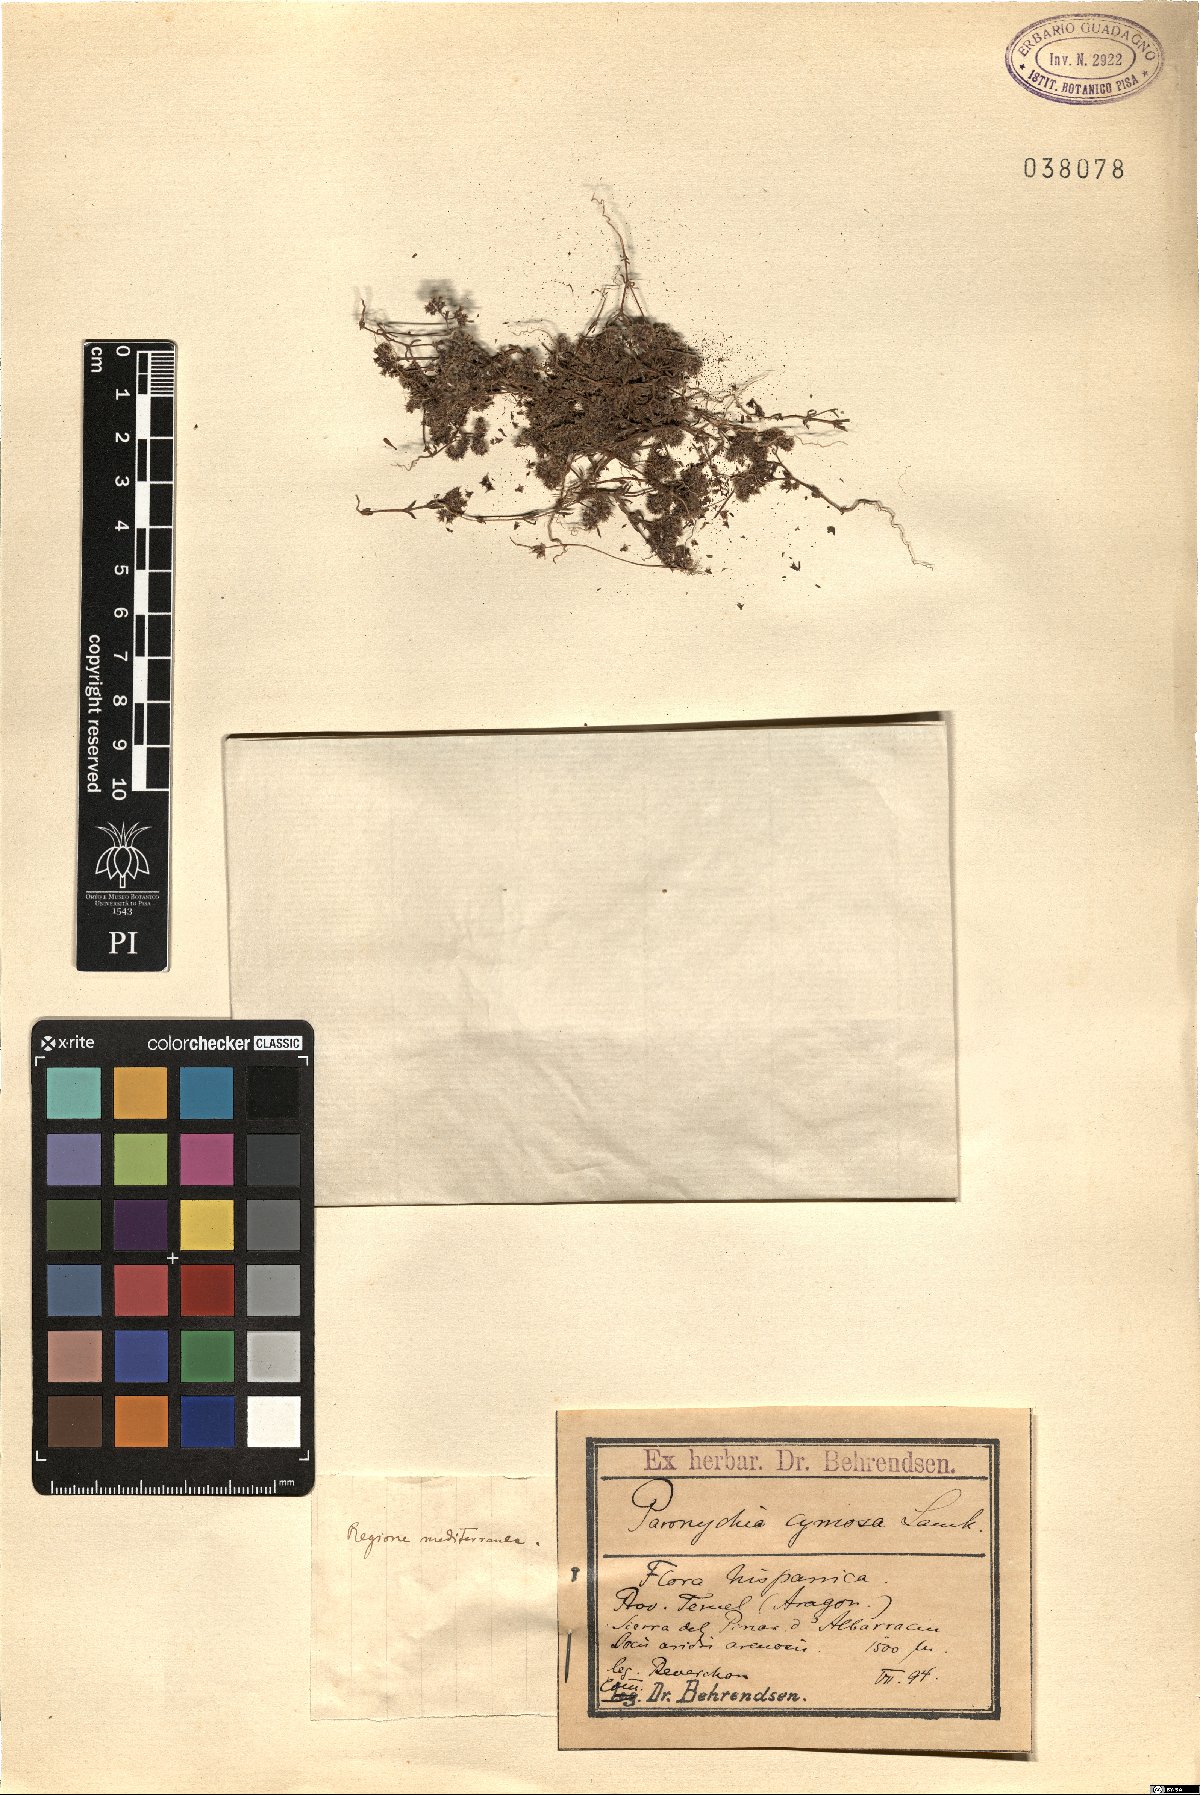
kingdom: Plantae
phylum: Tracheophyta
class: Magnoliopsida
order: Caryophyllales
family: Caryophyllaceae
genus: Chaetonychia
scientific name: Chaetonychia cymosa
